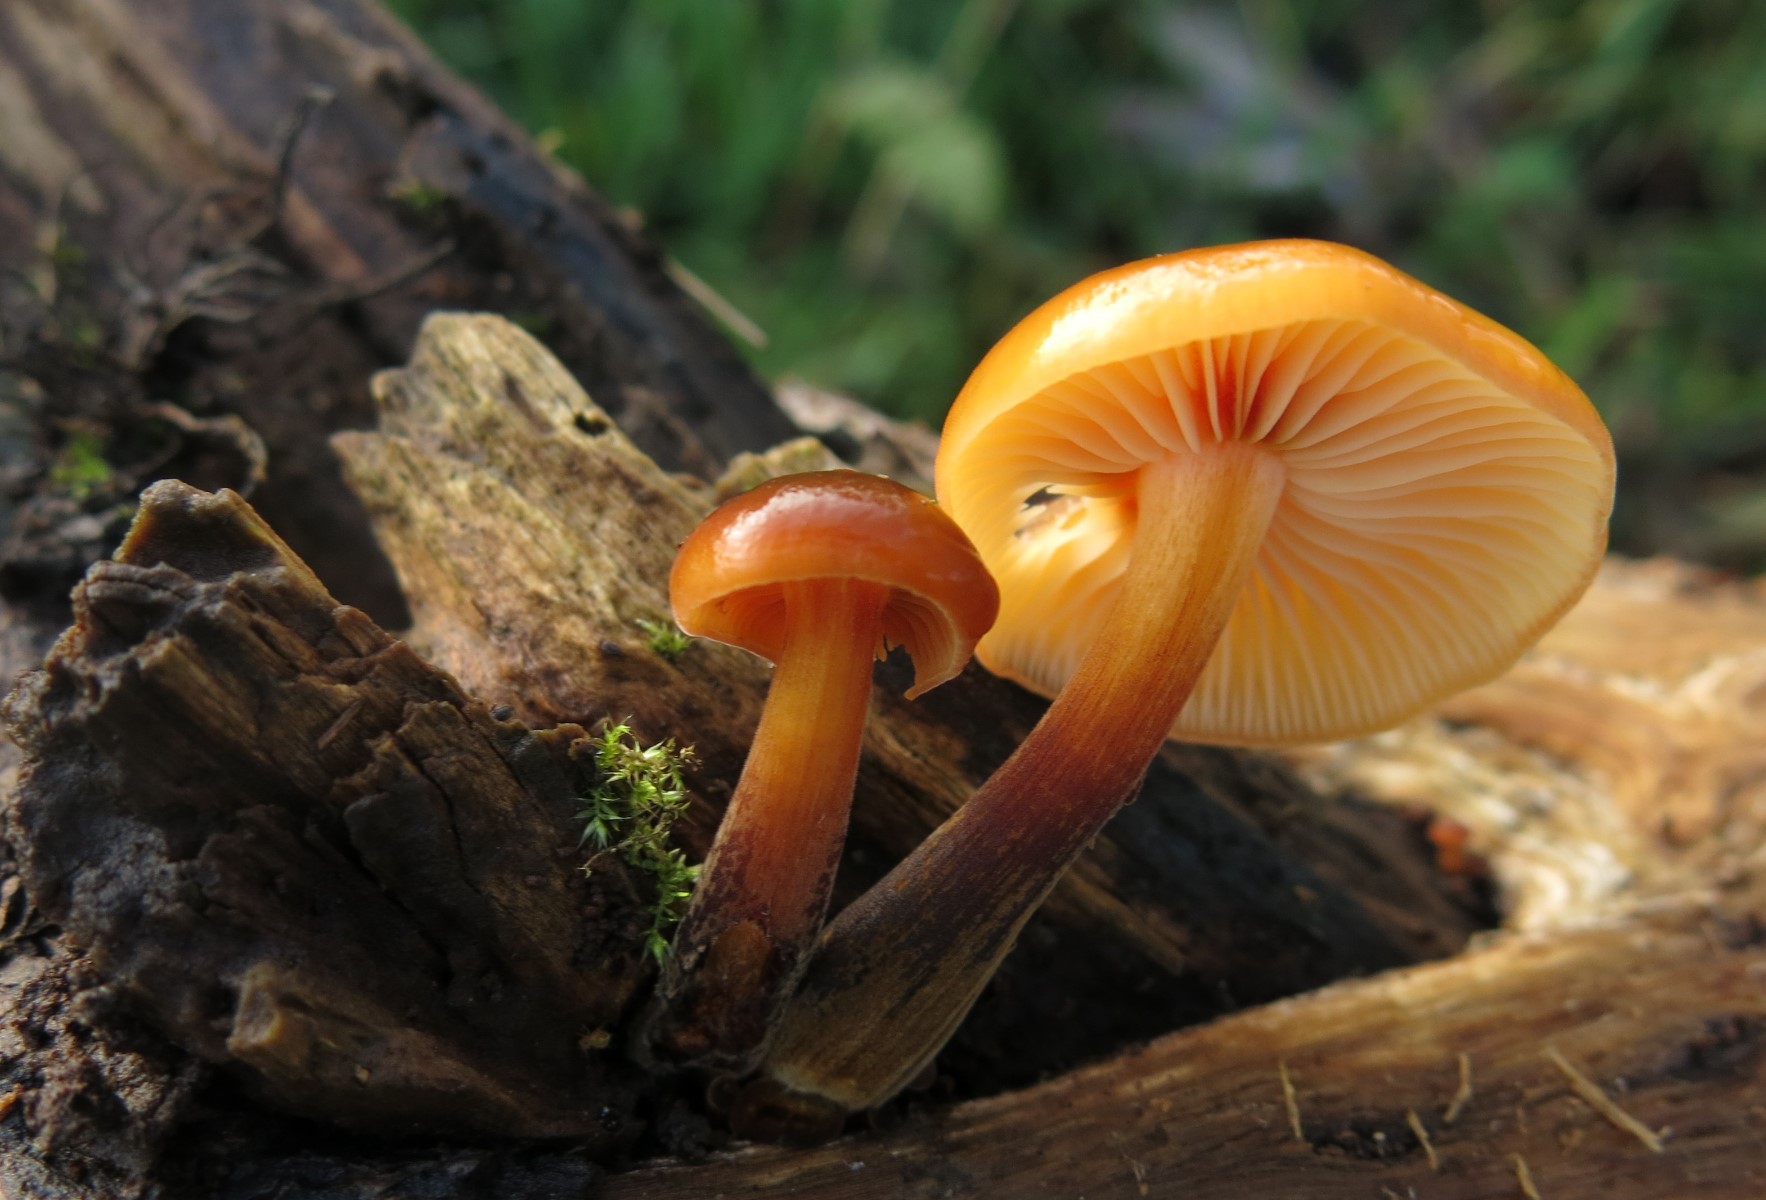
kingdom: Fungi
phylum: Basidiomycota
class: Agaricomycetes
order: Agaricales
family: Physalacriaceae
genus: Flammulina
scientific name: Flammulina velutipes
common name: gul fløjlsfod
